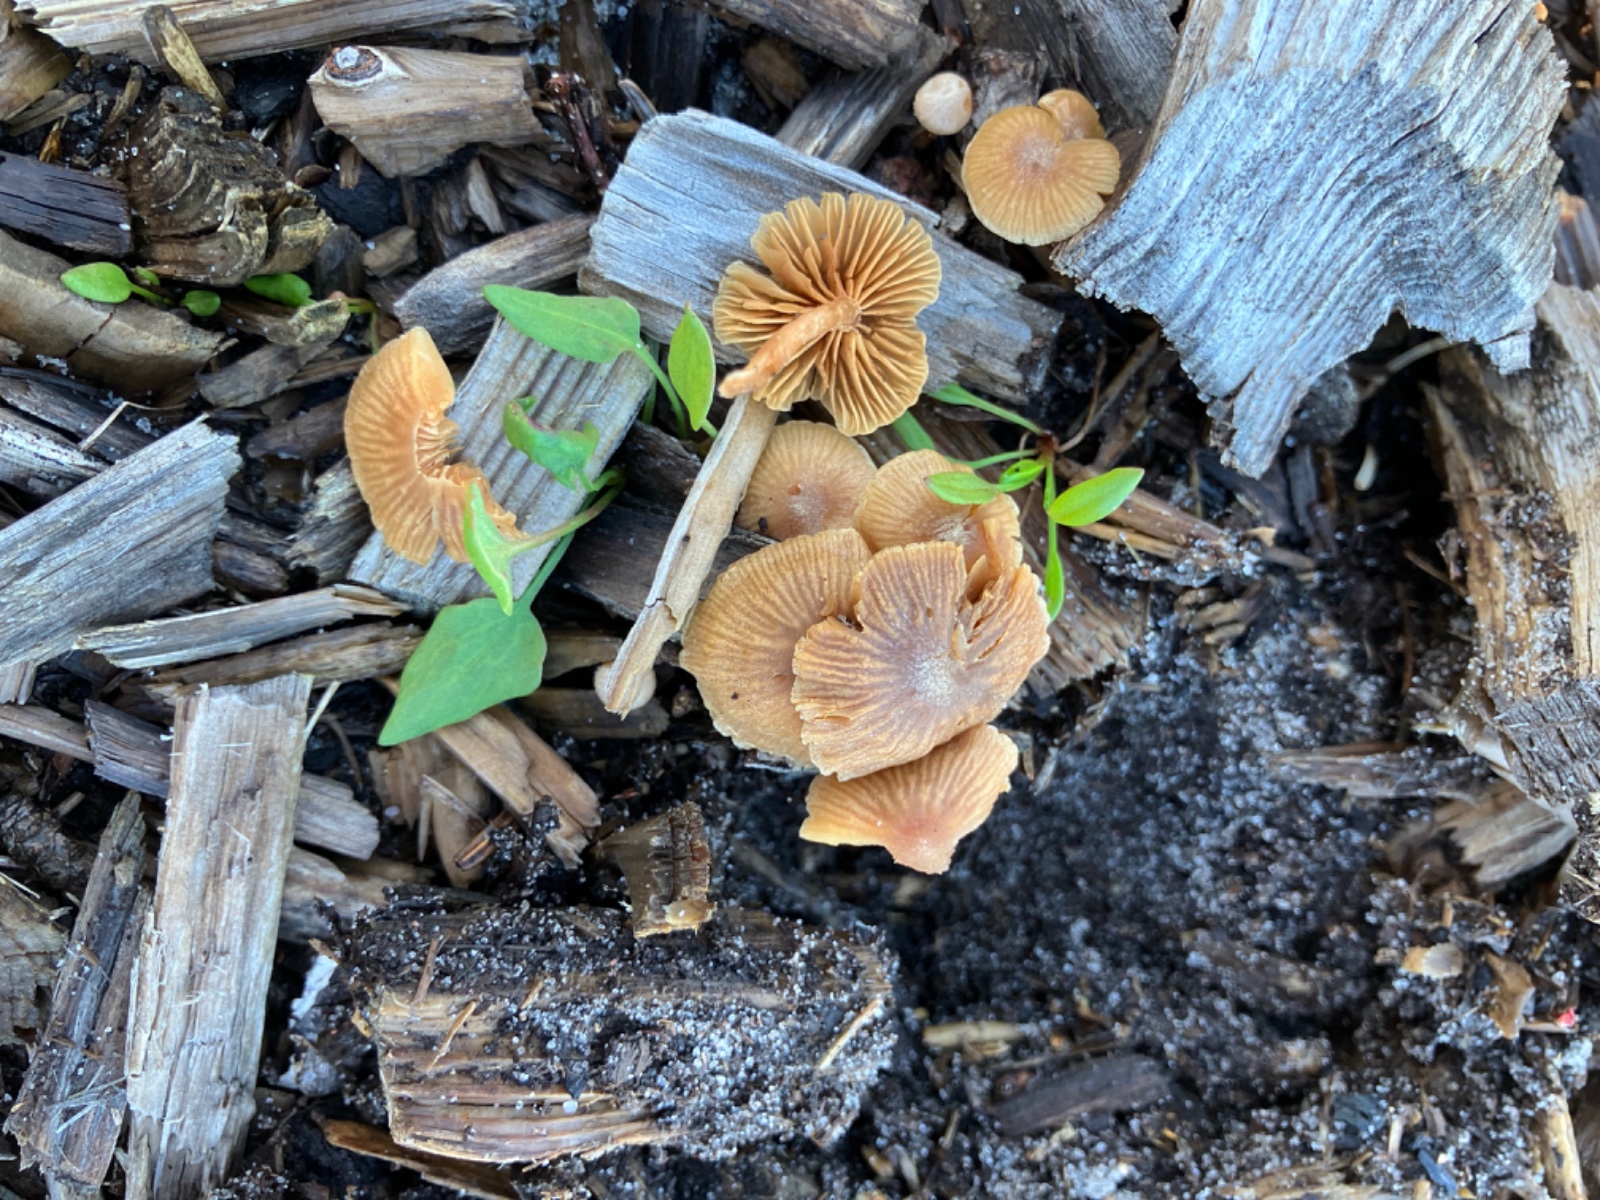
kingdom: Fungi
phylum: Basidiomycota
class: Agaricomycetes
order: Agaricales
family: Tubariaceae
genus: Tubaria
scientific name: Tubaria furfuracea
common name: kliddet fnughat
